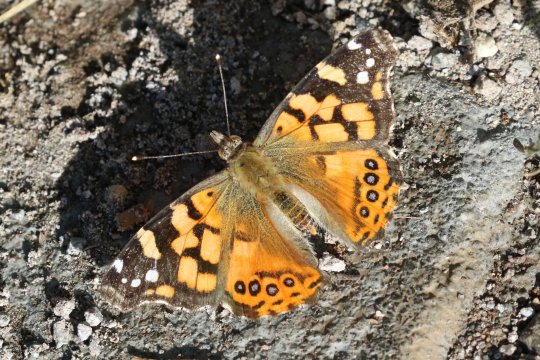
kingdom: Animalia
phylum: Arthropoda
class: Insecta
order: Lepidoptera
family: Nymphalidae
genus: Vanessa
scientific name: Vanessa carye
